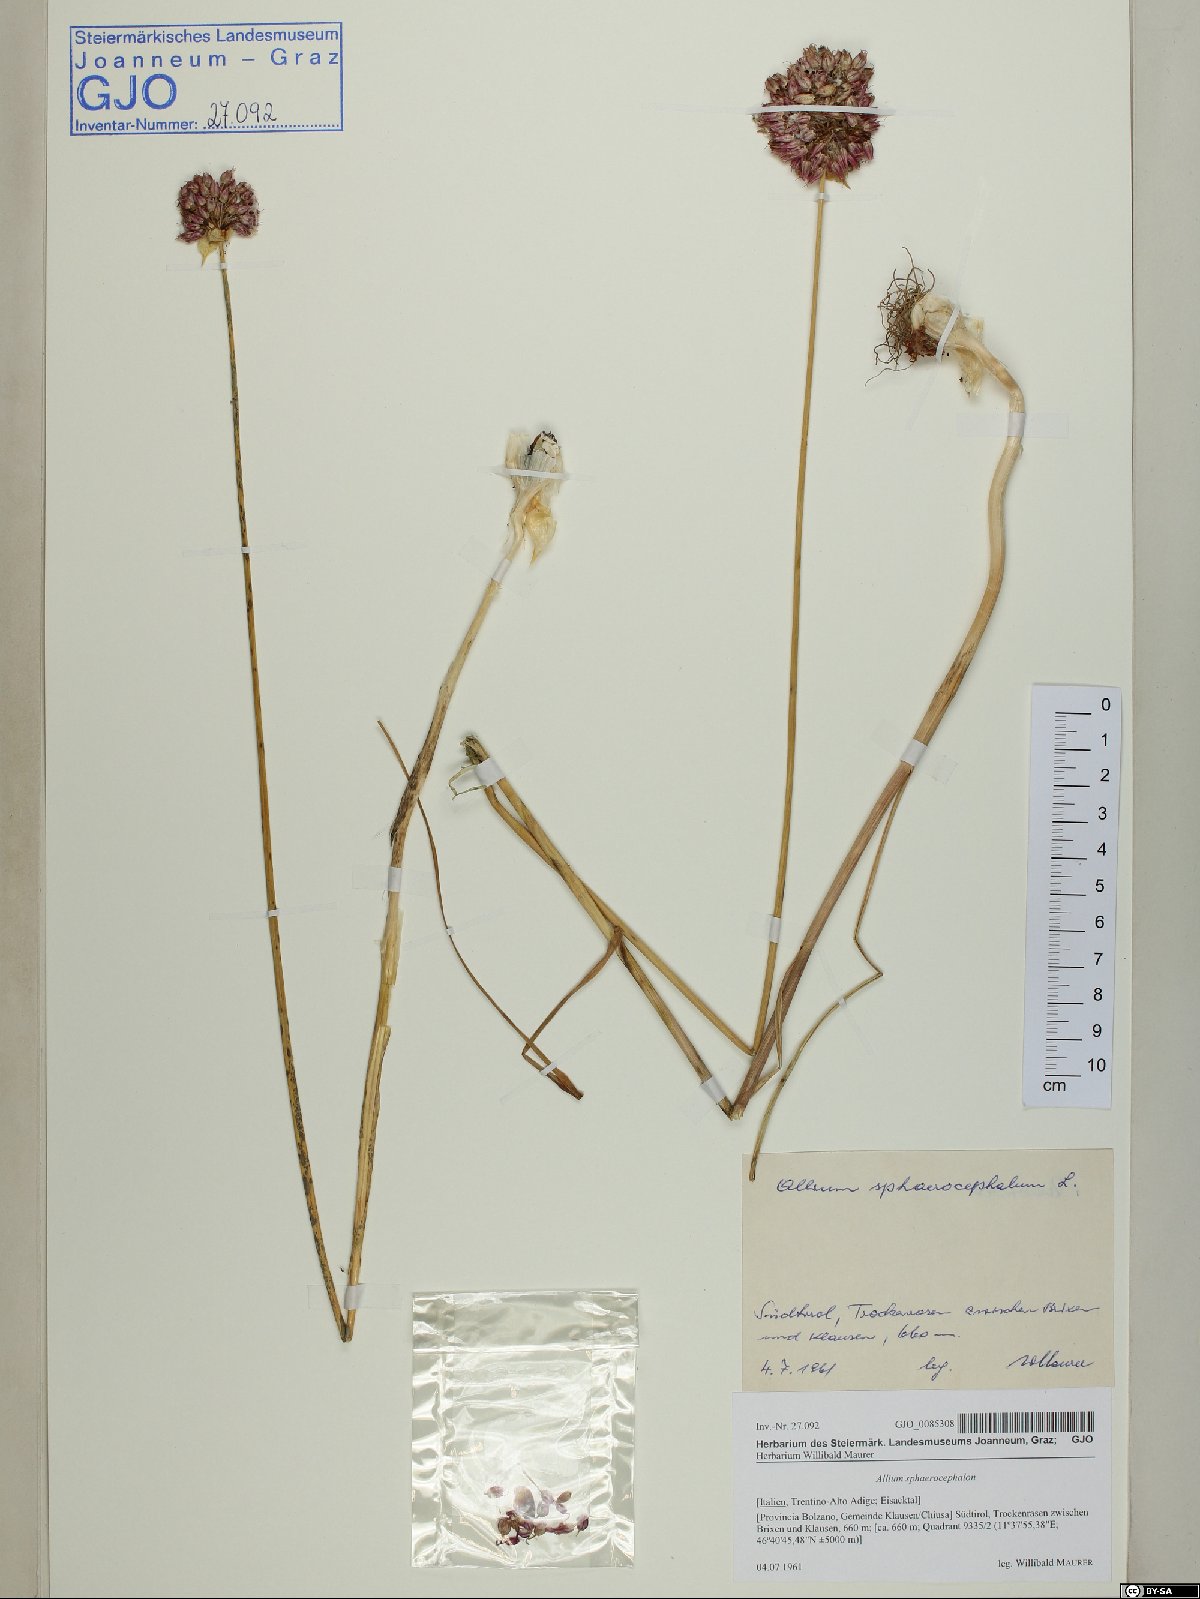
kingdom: Plantae
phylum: Tracheophyta
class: Liliopsida
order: Asparagales
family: Amaryllidaceae
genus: Allium
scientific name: Allium sphaerocephalon
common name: Round-headed leek
